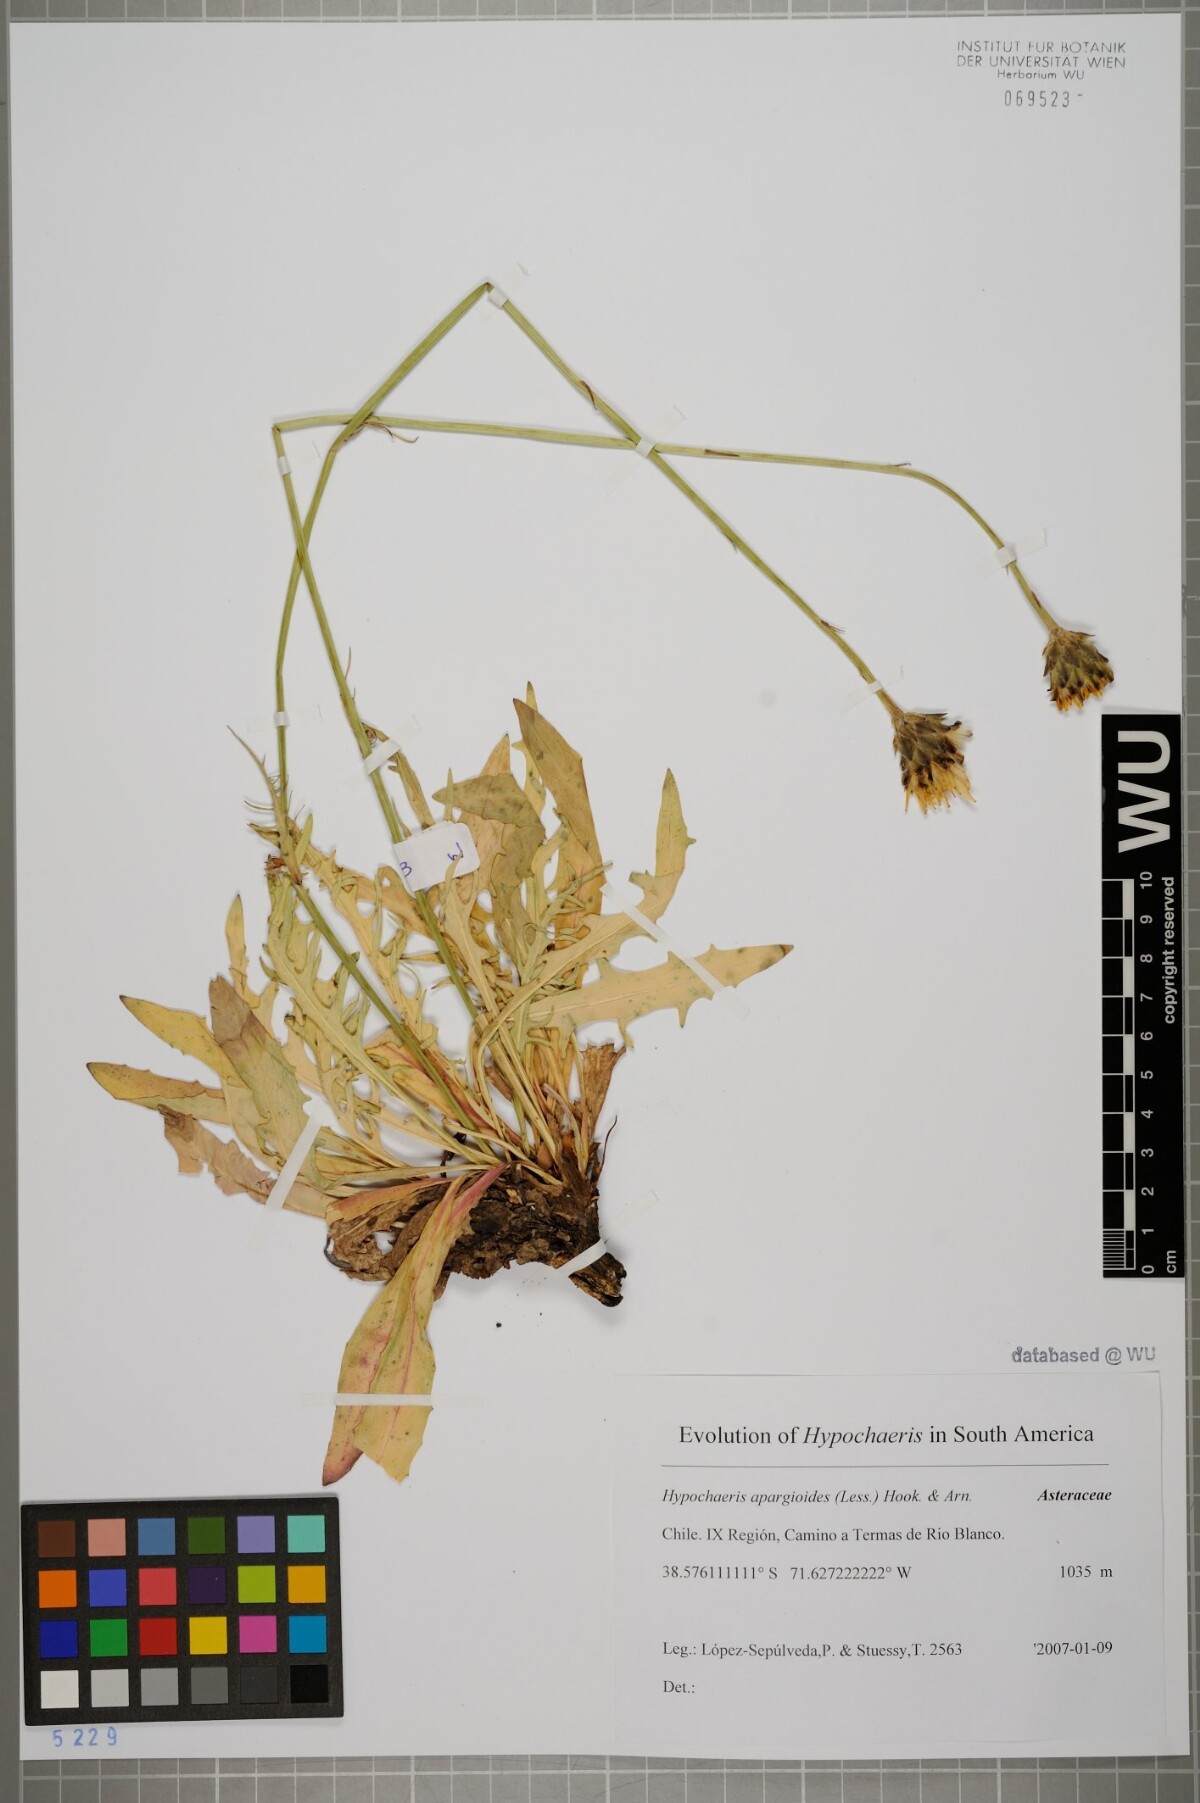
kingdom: Plantae
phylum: Tracheophyta
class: Magnoliopsida
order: Asterales
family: Asteraceae
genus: Hypochaeris
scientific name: Hypochaeris apargioides
